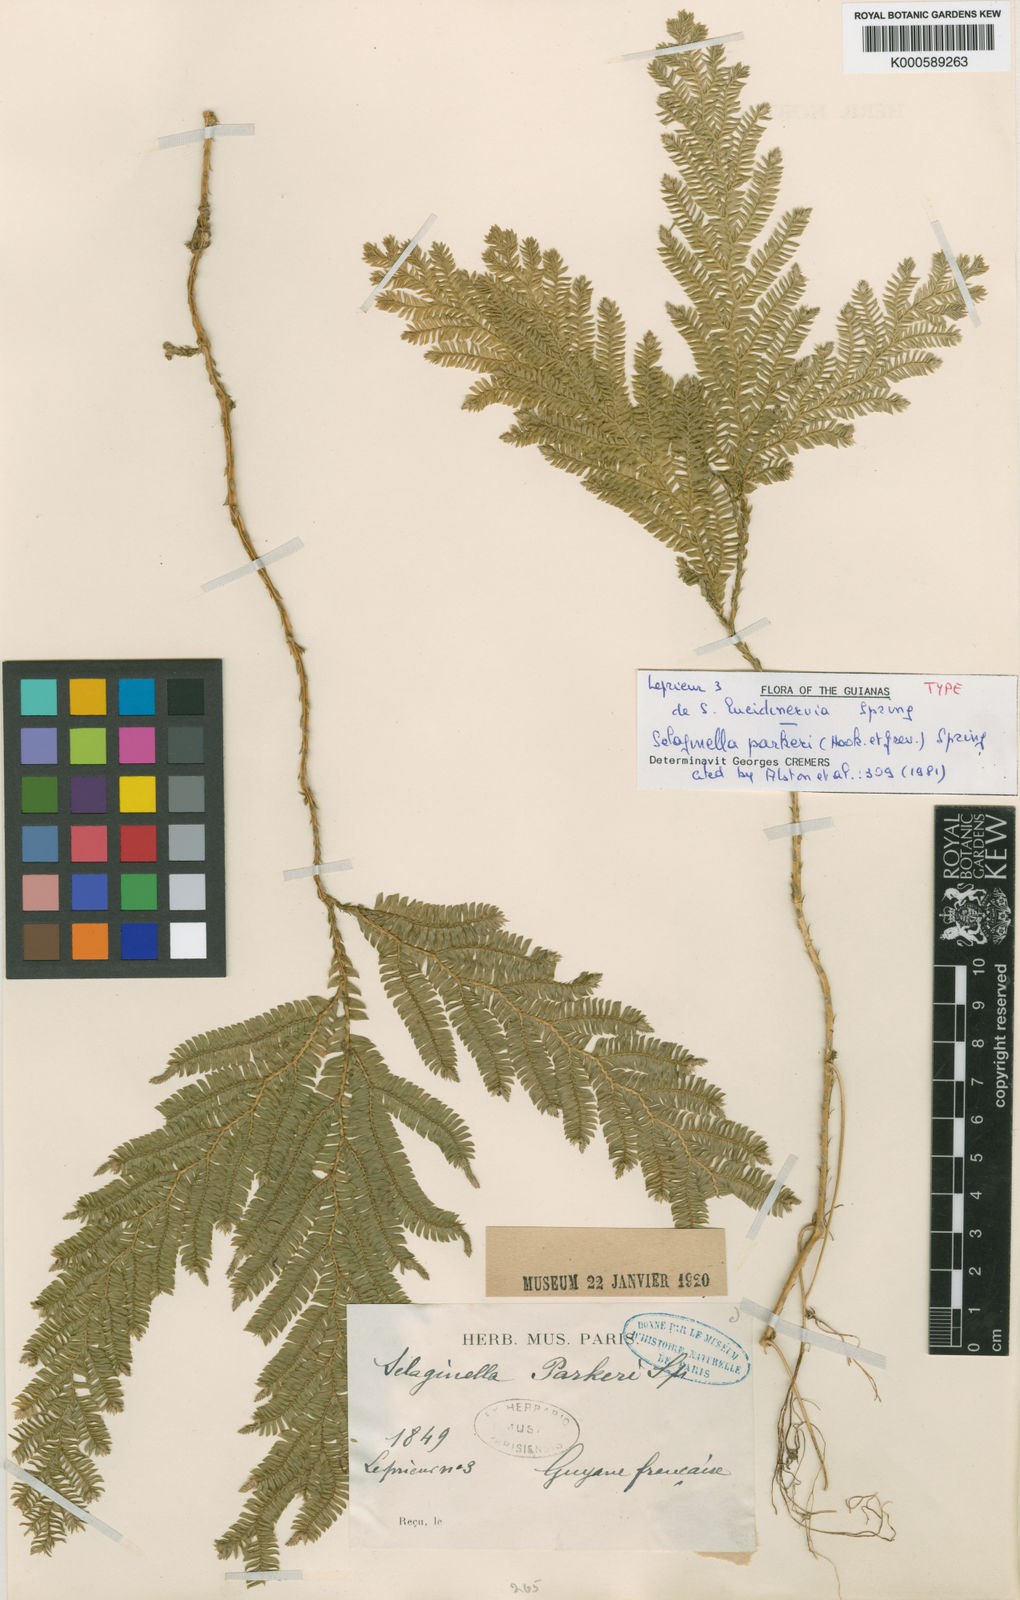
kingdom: Plantae
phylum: Tracheophyta
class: Lycopodiopsida
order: Selaginellales
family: Selaginellaceae
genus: Selaginella
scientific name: Selaginella parkeri
